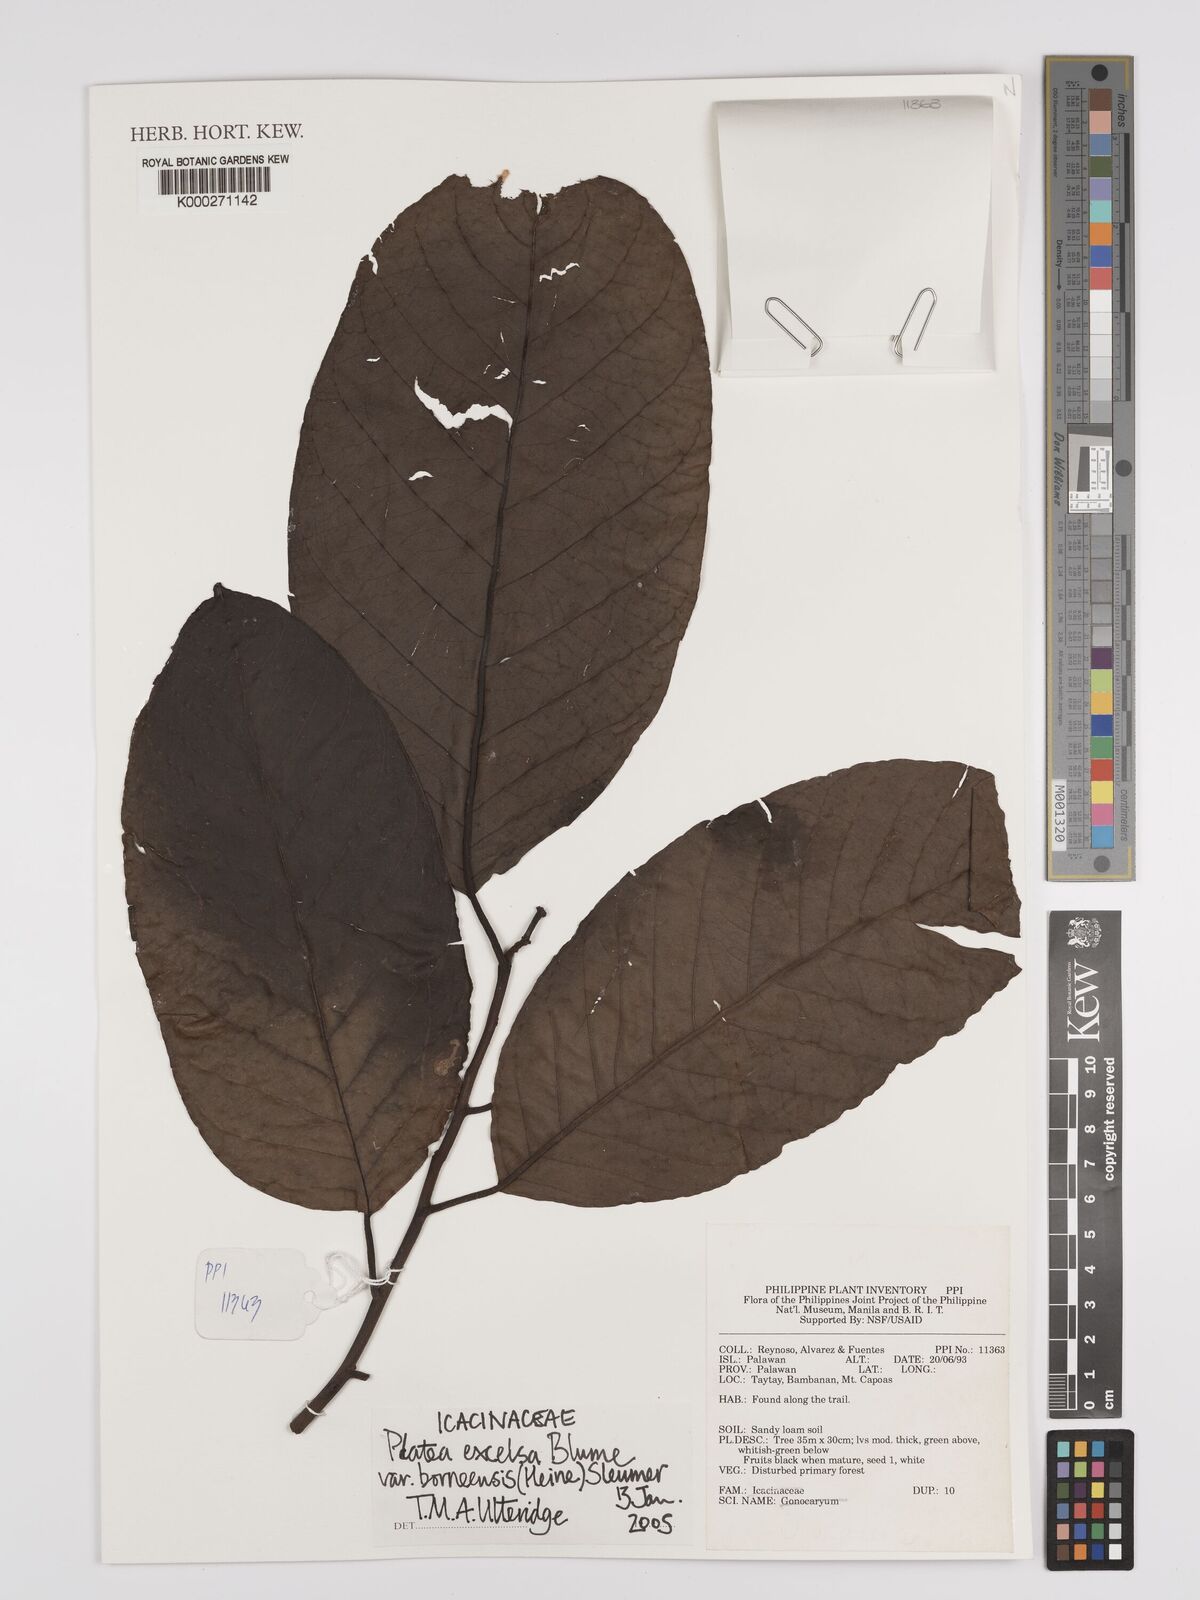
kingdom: Plantae
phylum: Tracheophyta
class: Magnoliopsida
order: Metteniusales
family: Metteniusaceae
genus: Platea
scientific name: Platea excelsa
